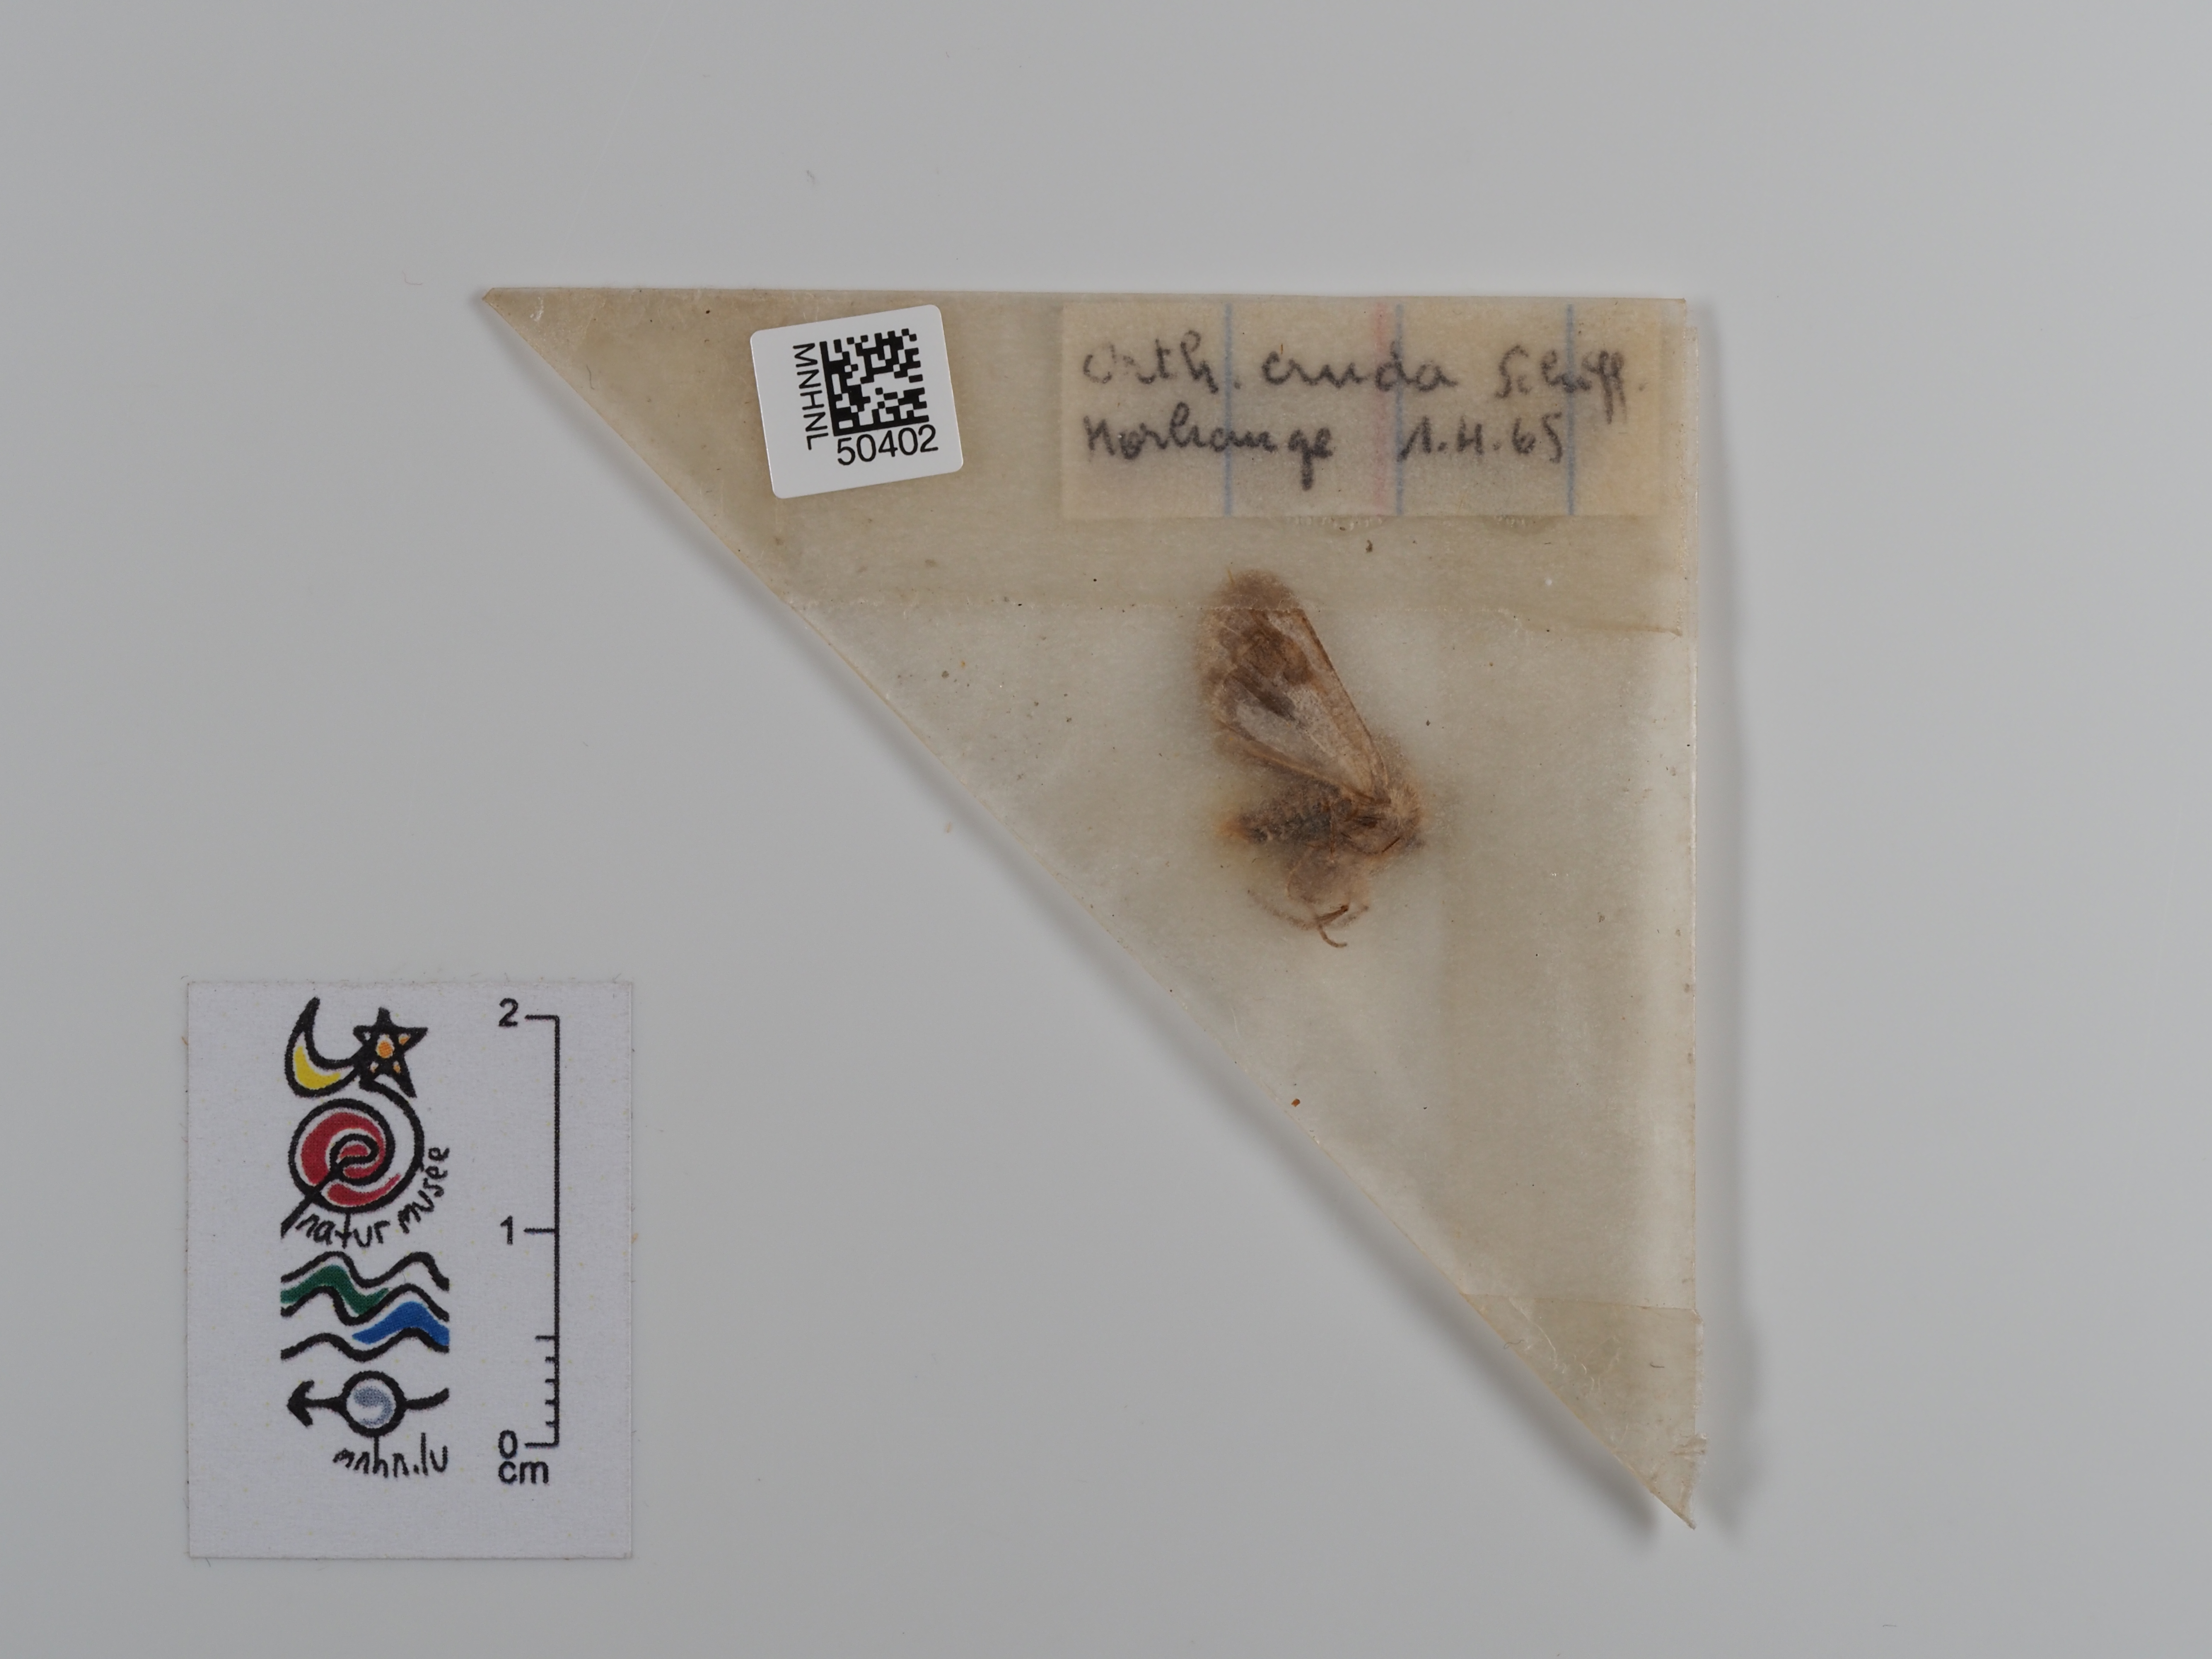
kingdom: Animalia
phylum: Arthropoda
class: Insecta
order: Lepidoptera
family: Noctuidae
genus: Orthosia
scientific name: Orthosia cruda
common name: Small quaker
